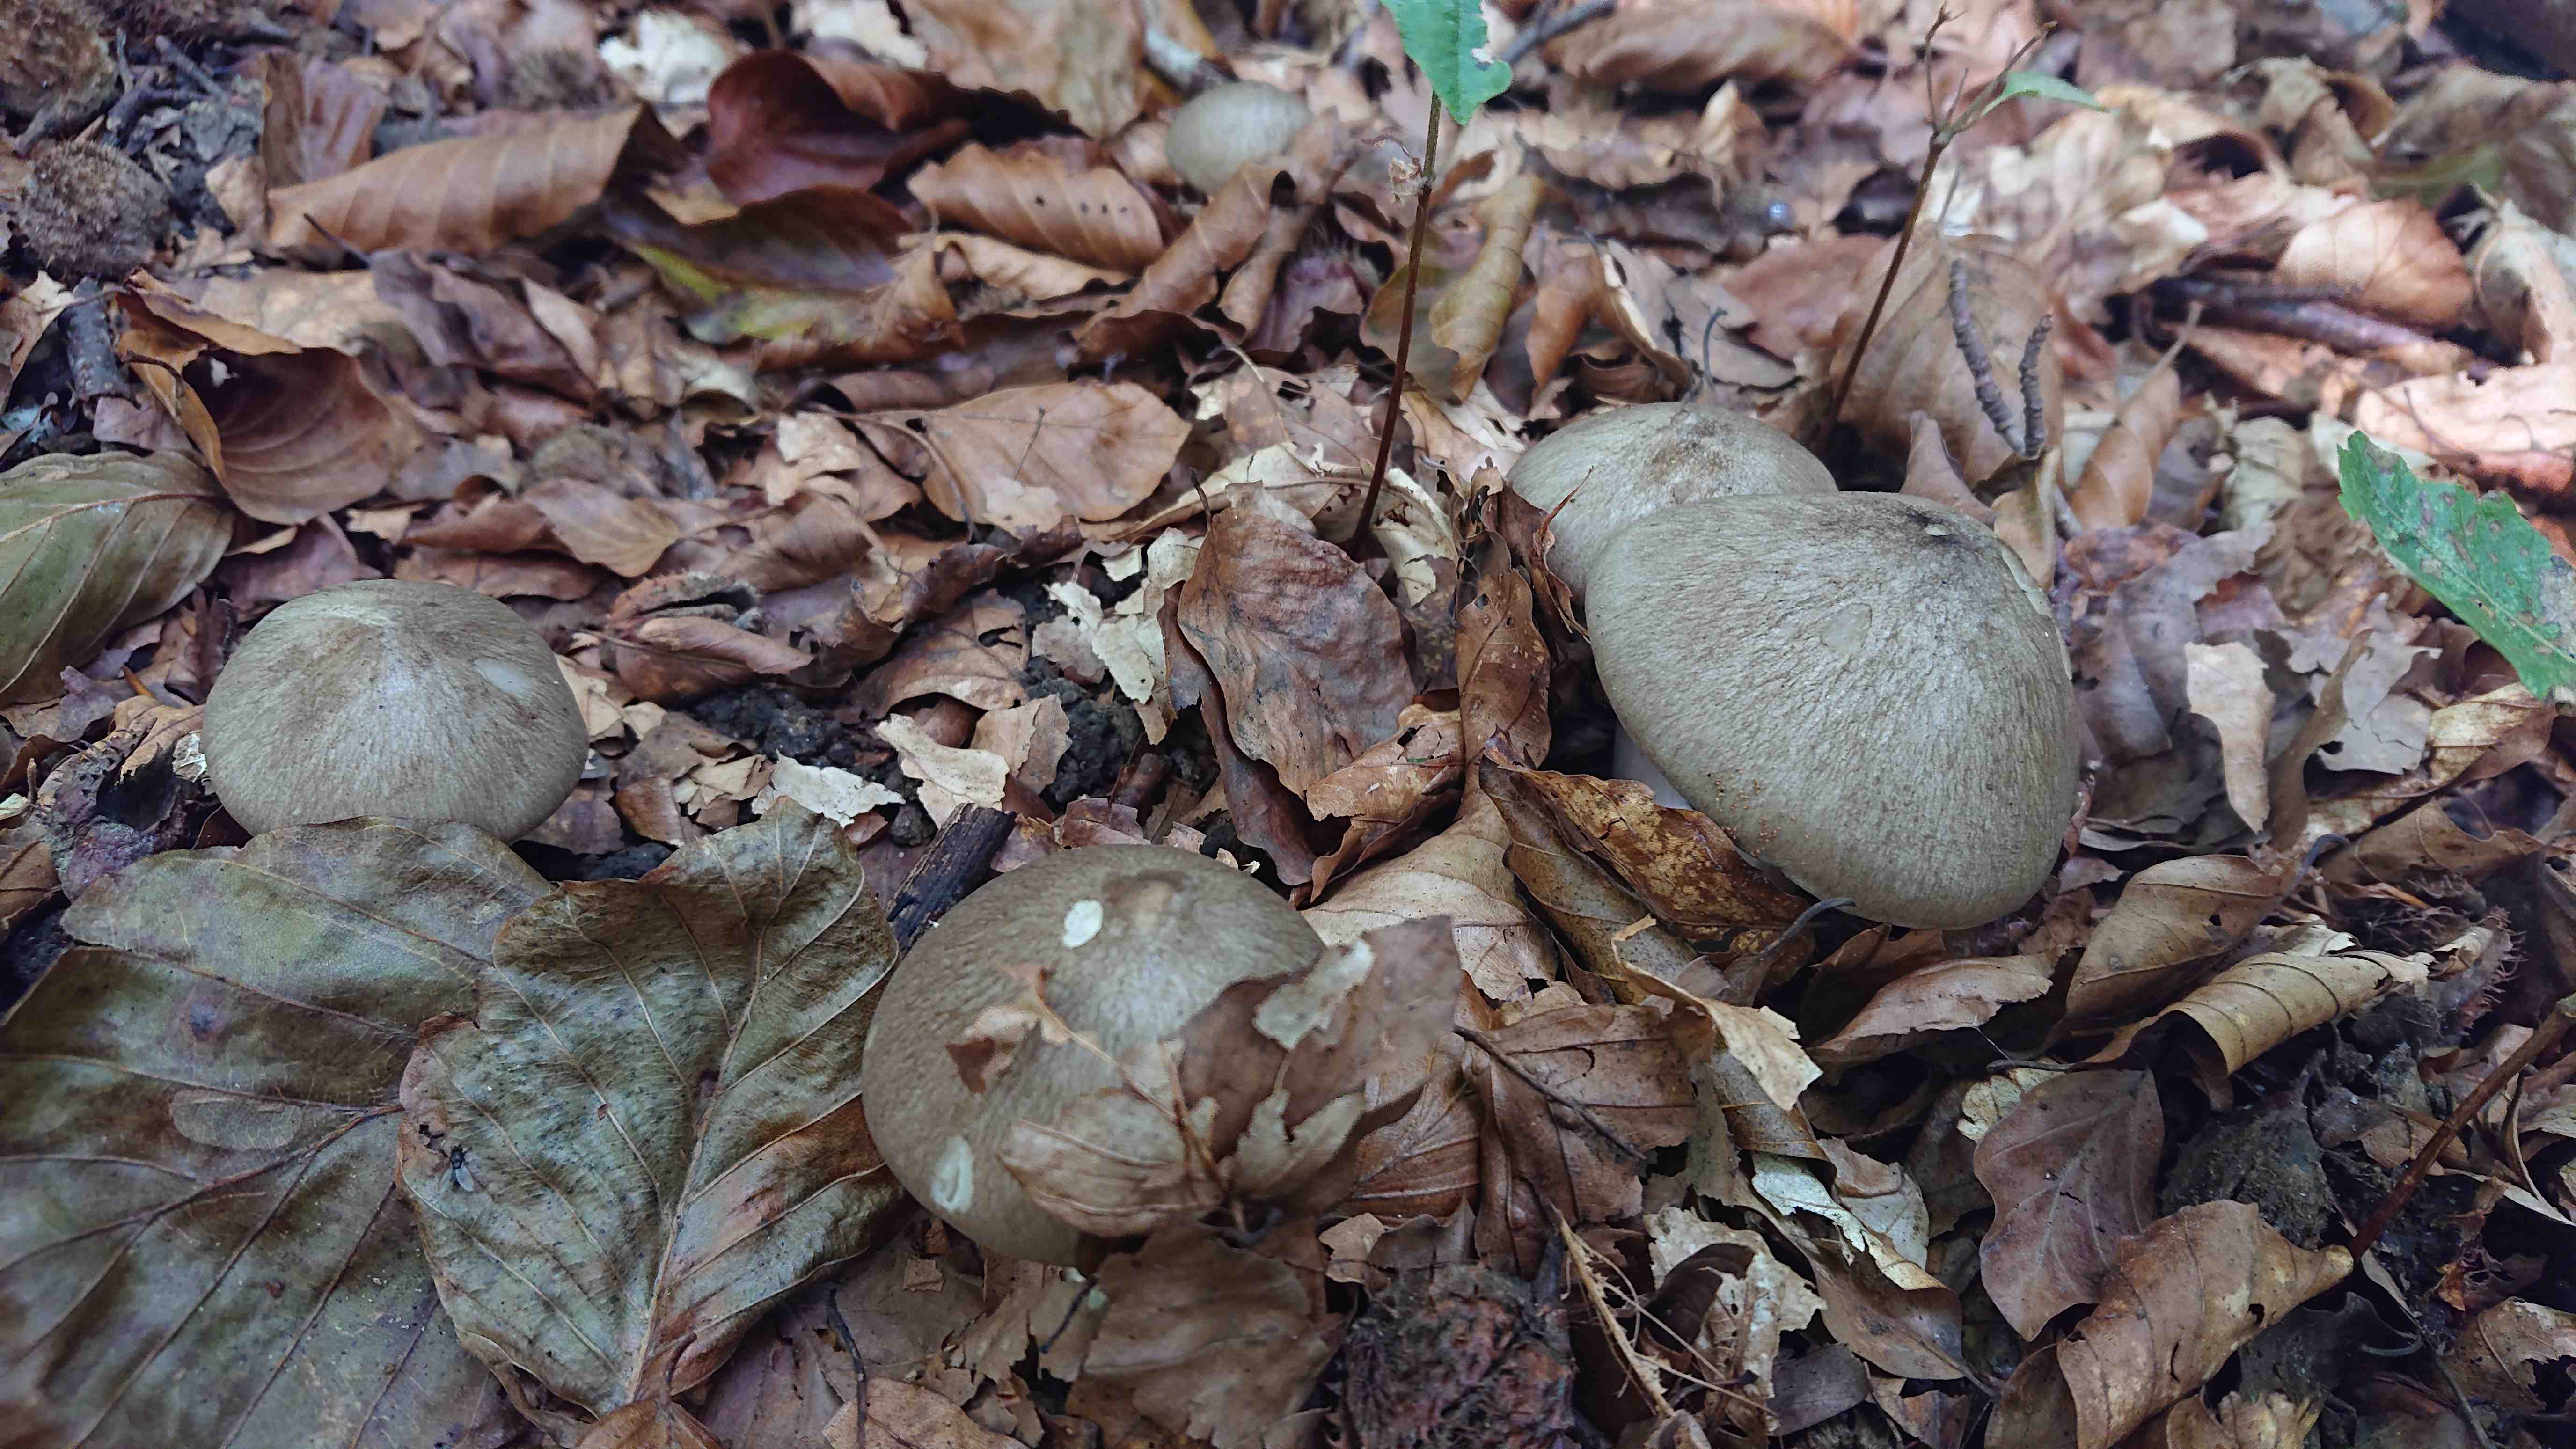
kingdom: Fungi
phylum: Basidiomycota
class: Agaricomycetes
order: Agaricales
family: Tricholomataceae
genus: Megacollybia
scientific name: Megacollybia platyphylla
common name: bredbladet væbnerhat
